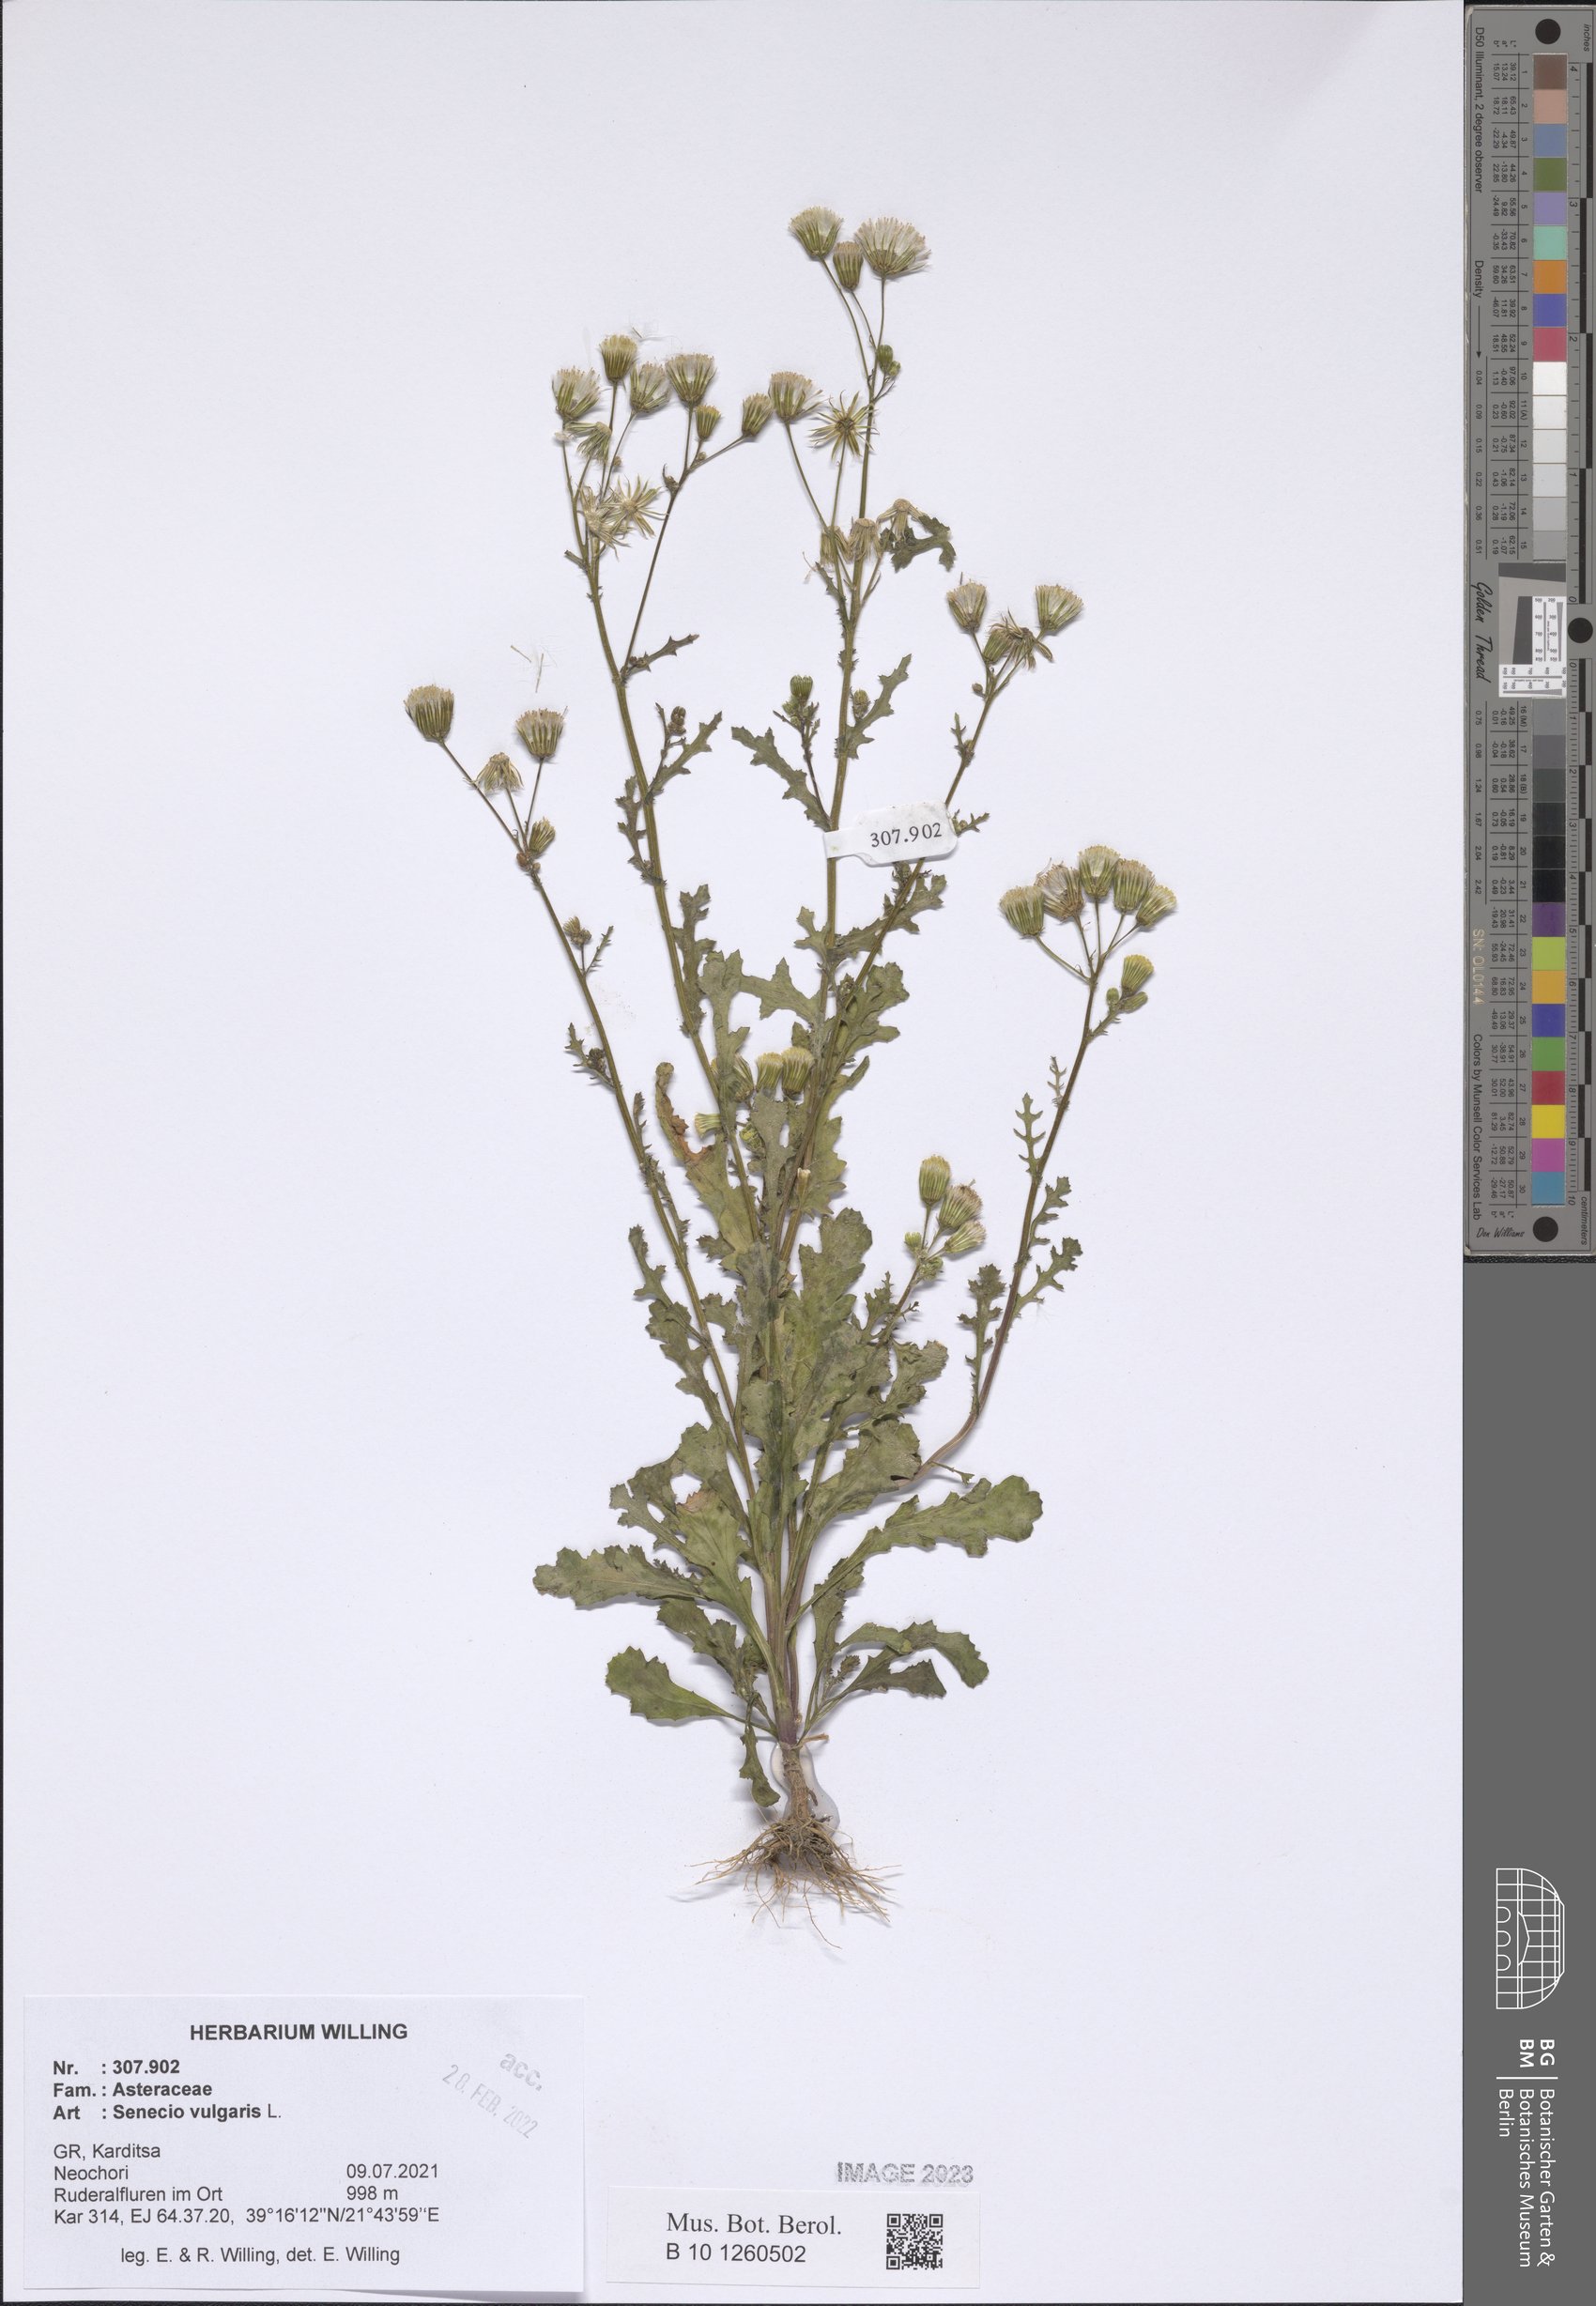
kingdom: Plantae
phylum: Tracheophyta
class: Magnoliopsida
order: Asterales
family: Asteraceae
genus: Senecio
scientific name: Senecio vulgaris
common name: Old-man-in-the-spring
